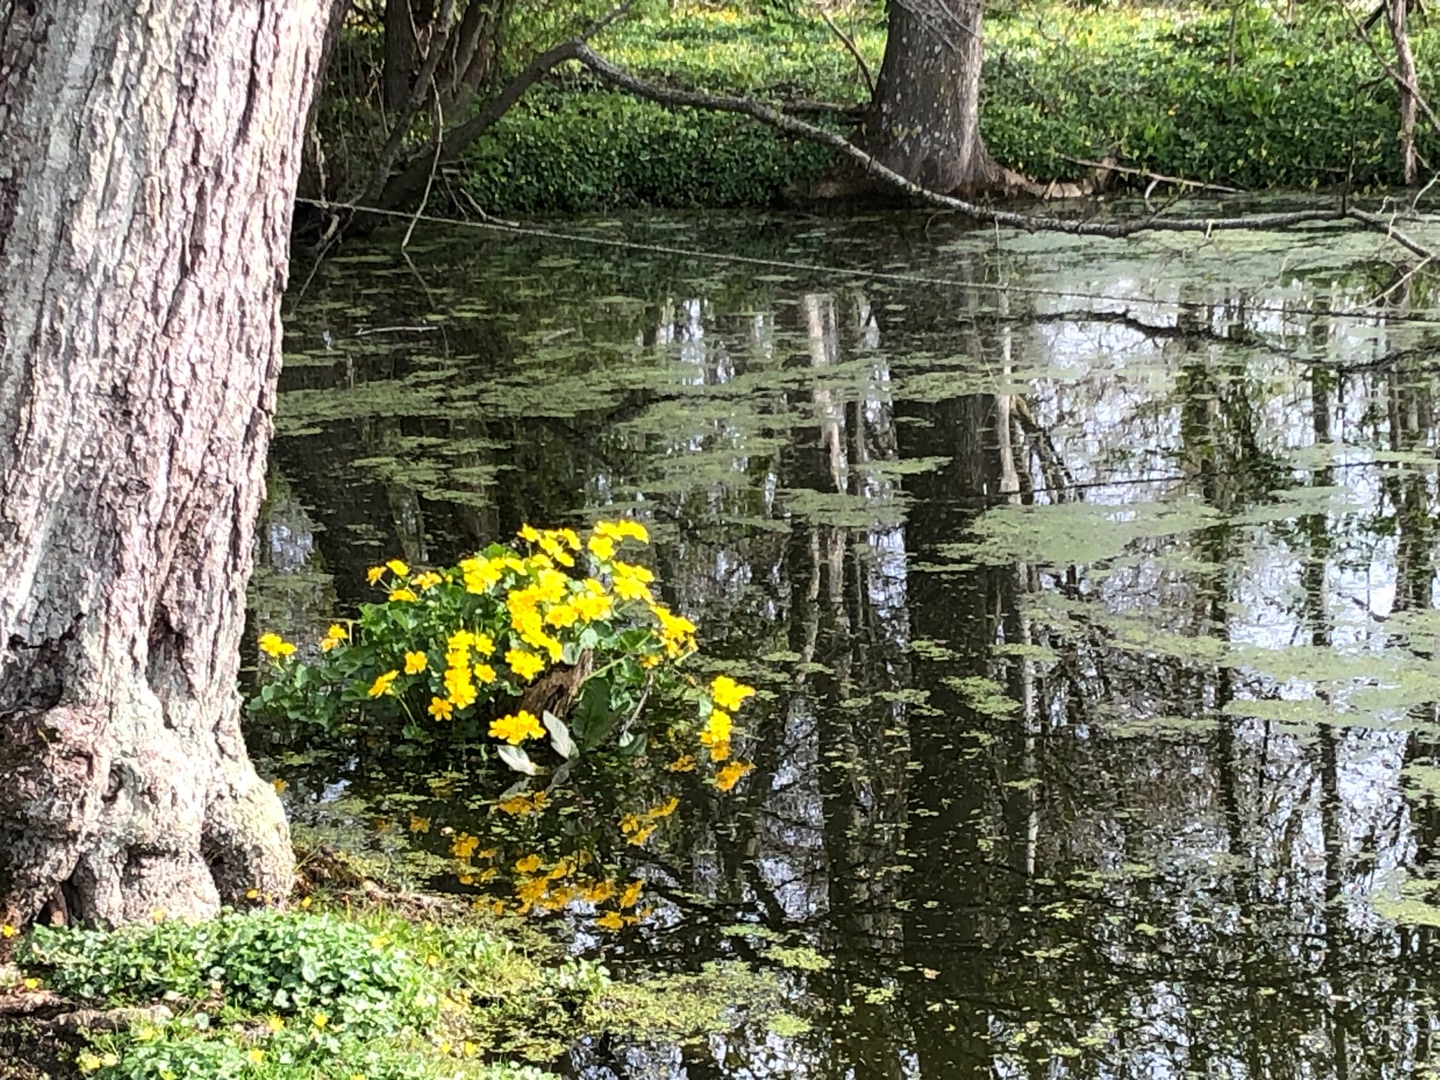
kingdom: Plantae
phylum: Tracheophyta
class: Magnoliopsida
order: Ranunculales
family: Ranunculaceae
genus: Caltha
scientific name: Caltha palustris
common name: Eng-kabbeleje
